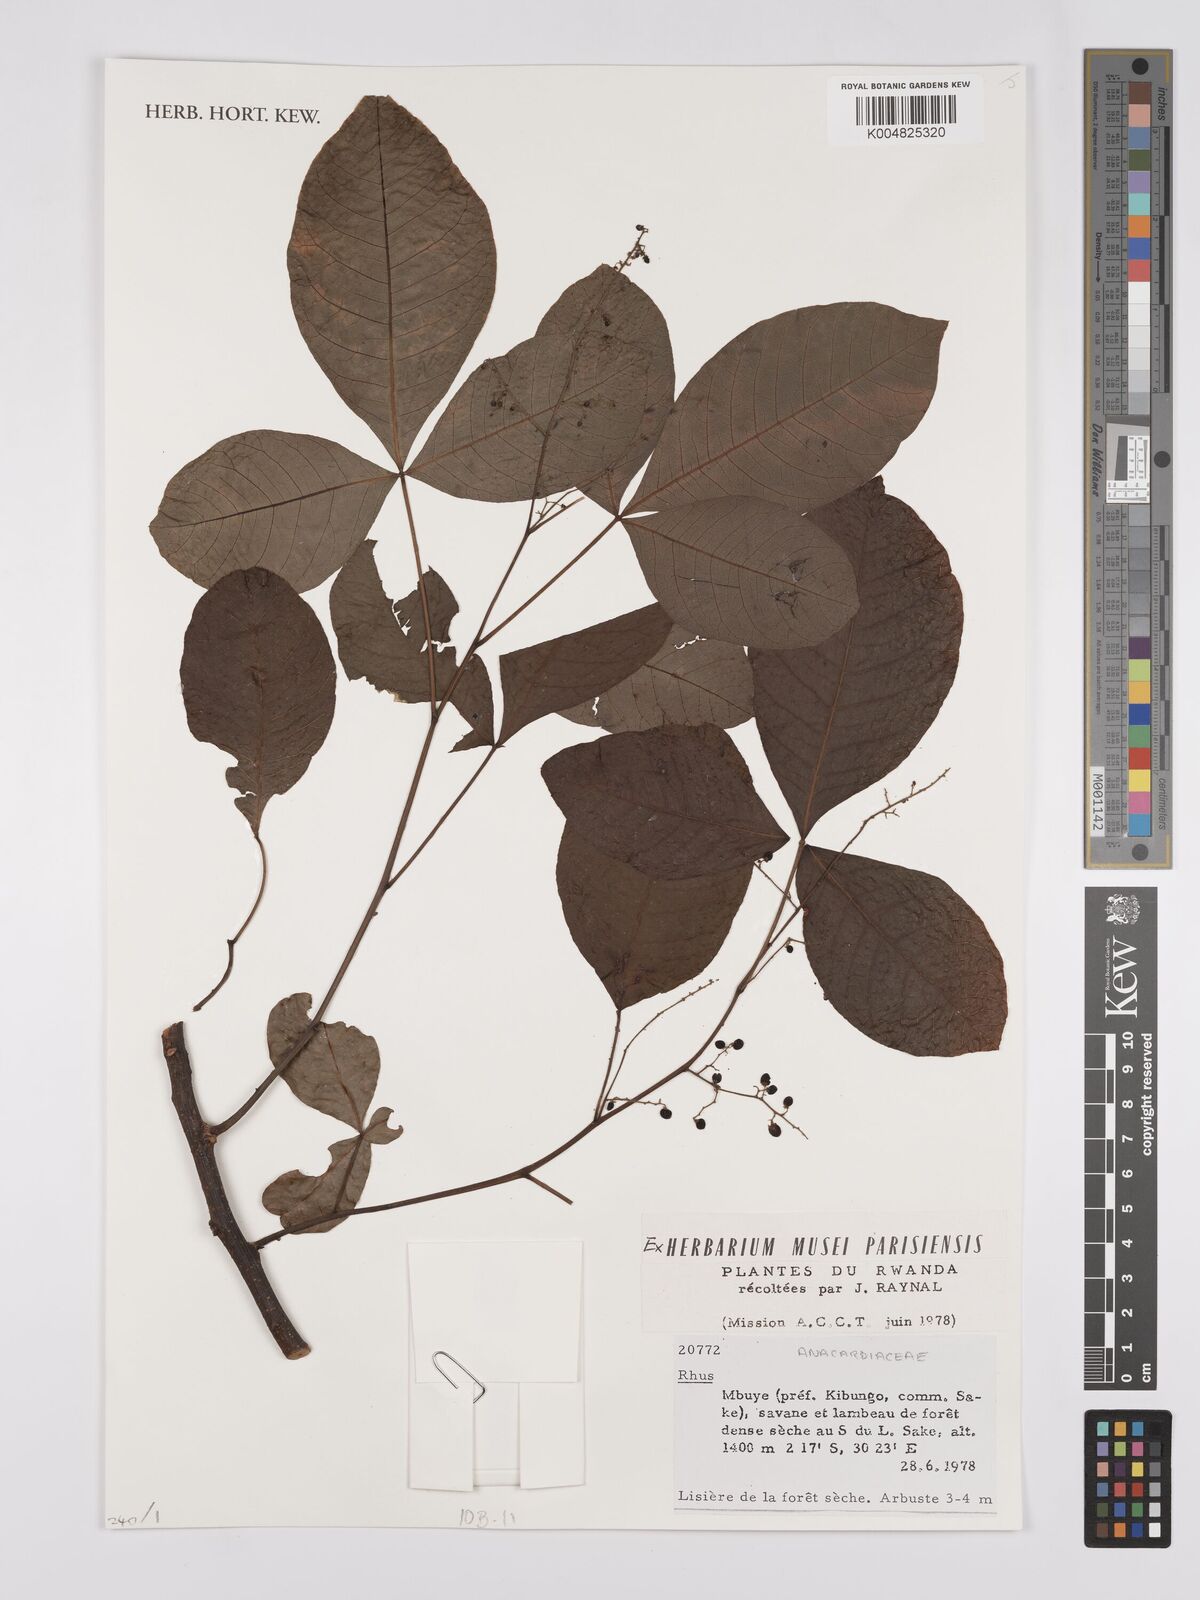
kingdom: Plantae
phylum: Tracheophyta
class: Magnoliopsida
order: Sapindales
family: Anacardiaceae
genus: Rhus
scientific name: Rhus
